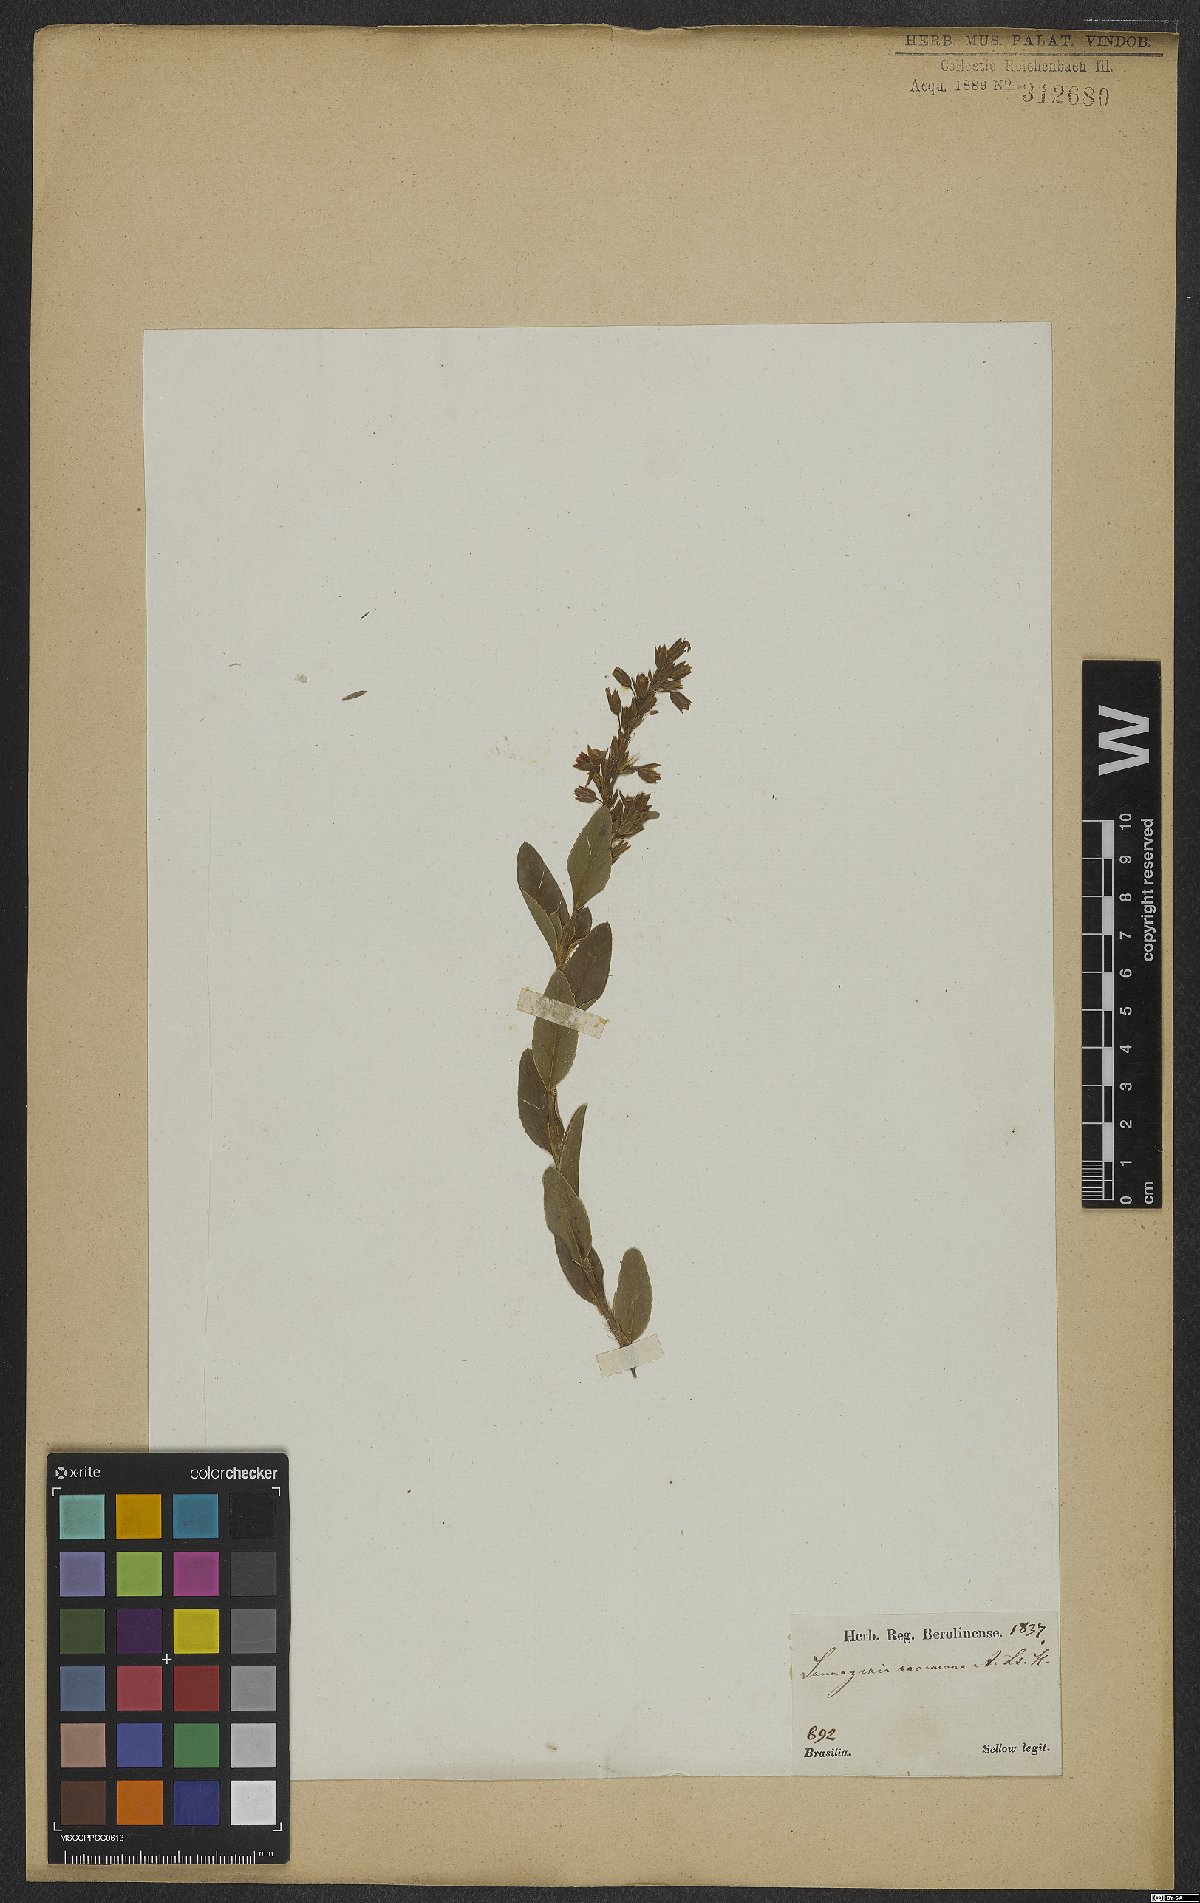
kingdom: Plantae
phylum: Tracheophyta
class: Magnoliopsida
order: Malpighiales
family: Ochnaceae
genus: Sauvagesia
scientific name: Sauvagesia racemosa
